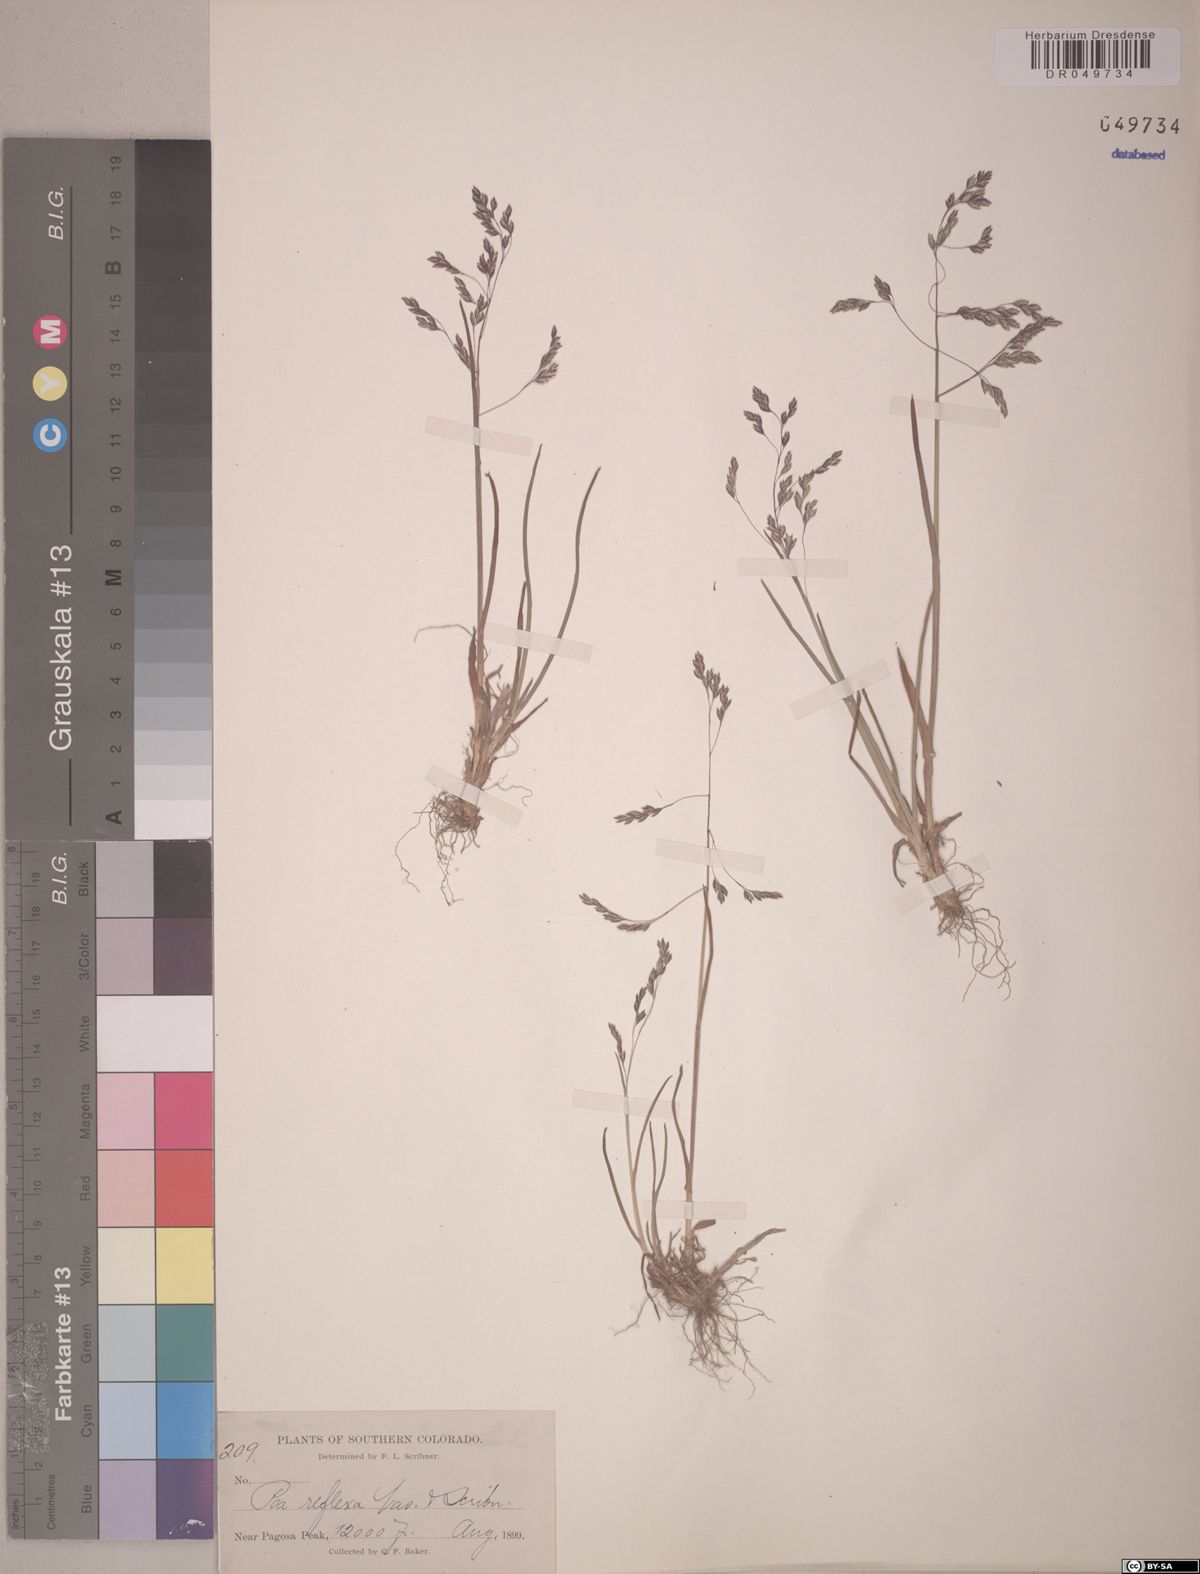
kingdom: Plantae
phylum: Tracheophyta
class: Liliopsida
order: Poales
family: Poaceae
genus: Poa
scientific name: Poa reflexa
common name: Nodding bluegrass
